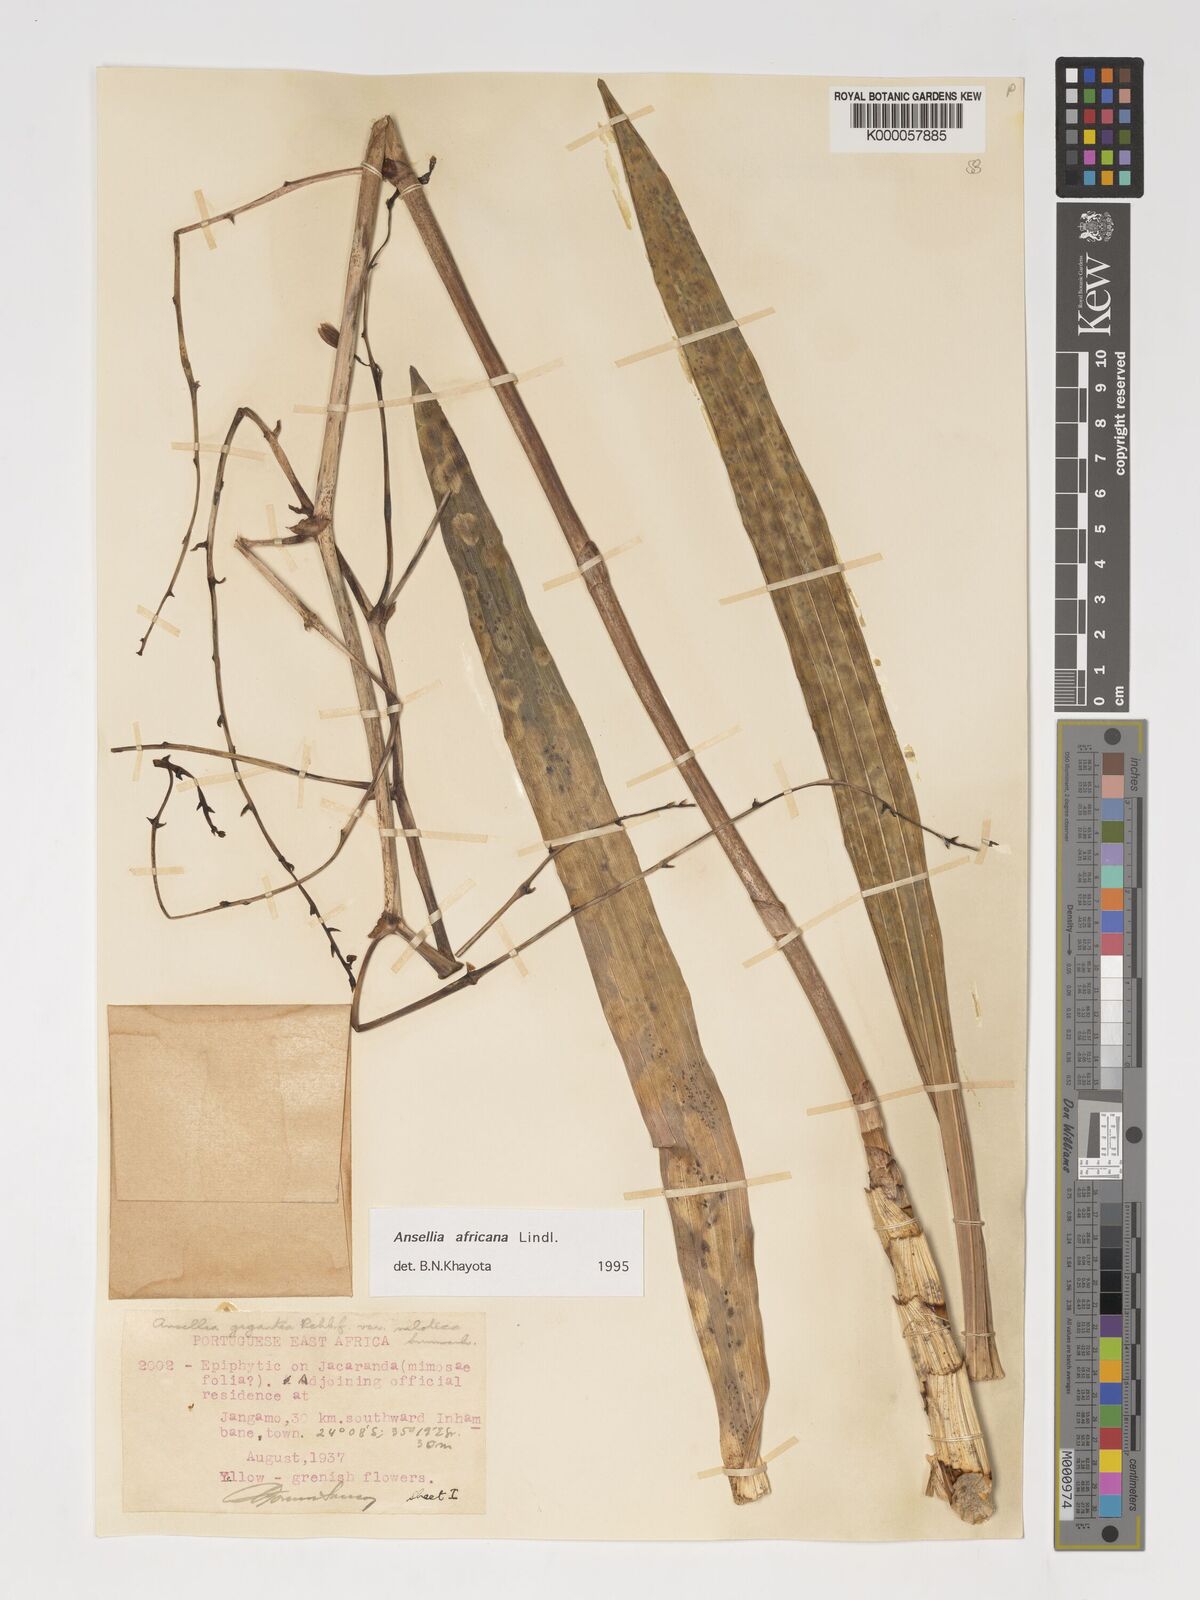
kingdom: Plantae
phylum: Tracheophyta
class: Liliopsida
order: Asparagales
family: Orchidaceae
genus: Ansellia
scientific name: Ansellia africana
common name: African ansellia
